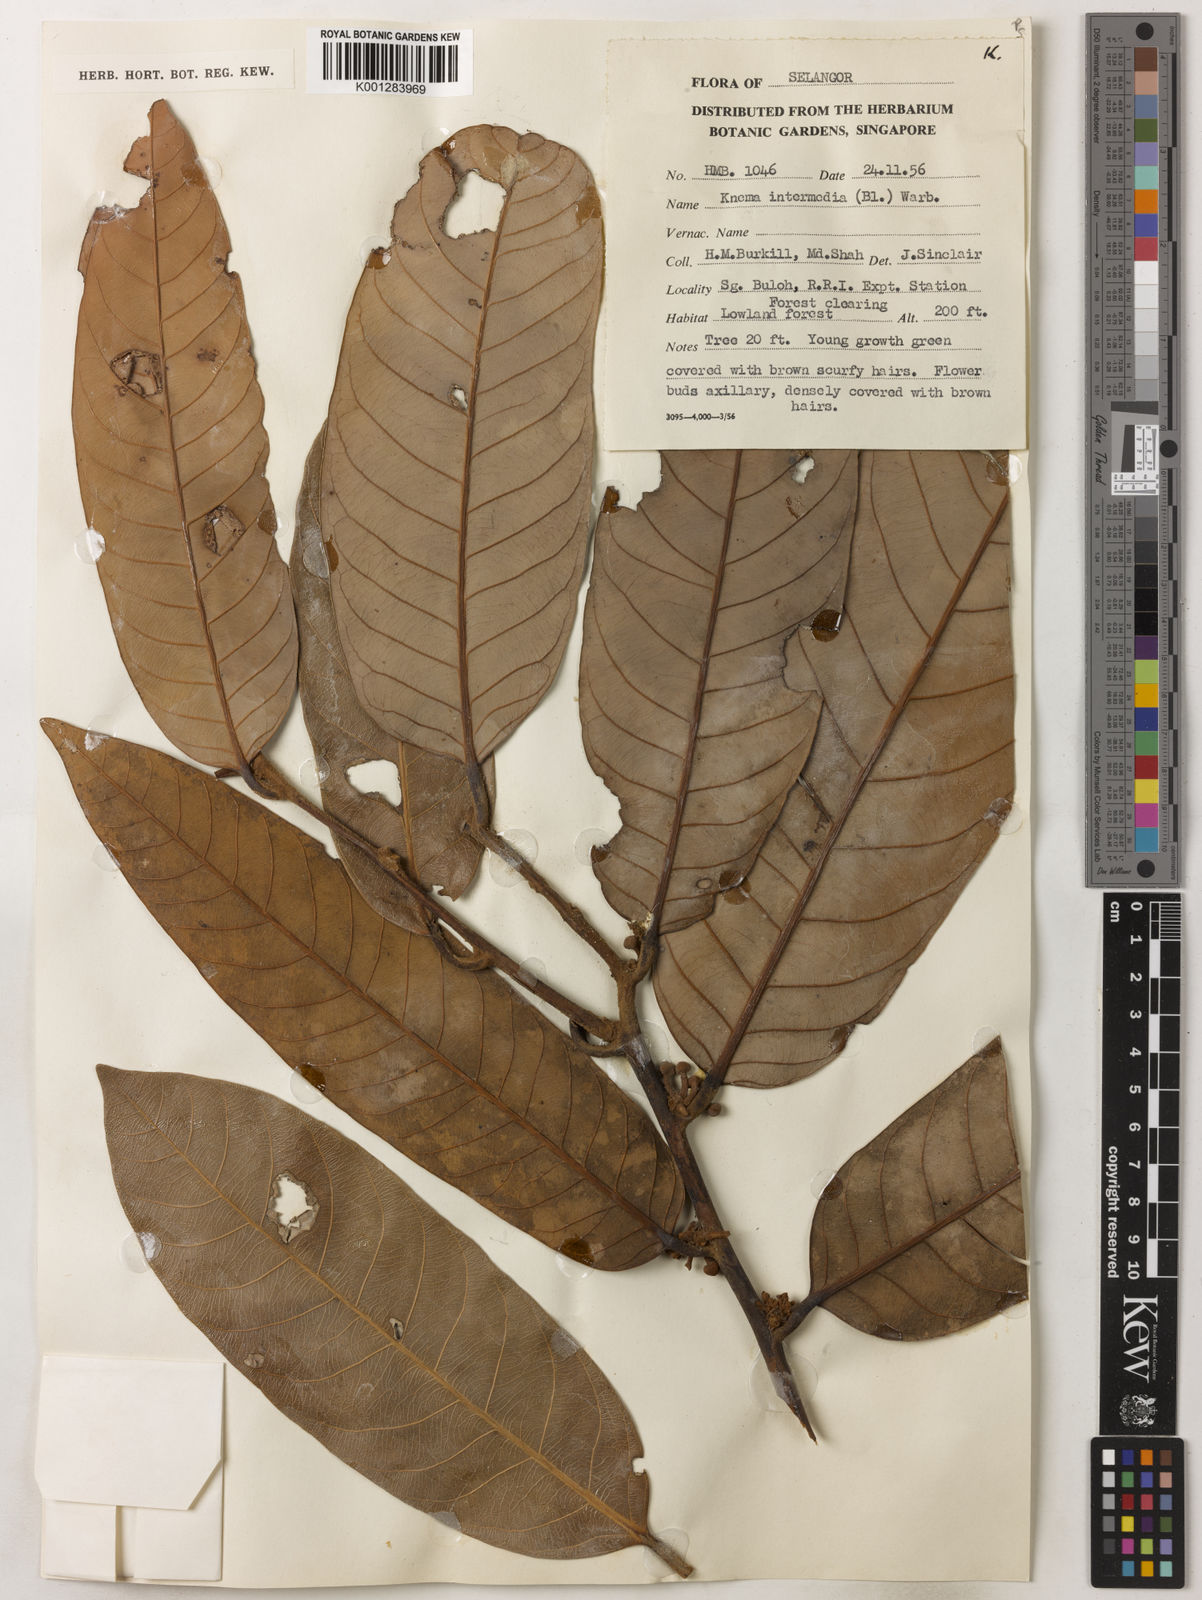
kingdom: Plantae
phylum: Tracheophyta
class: Magnoliopsida
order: Magnoliales
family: Myristicaceae
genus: Knema
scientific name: Knema intermedia
